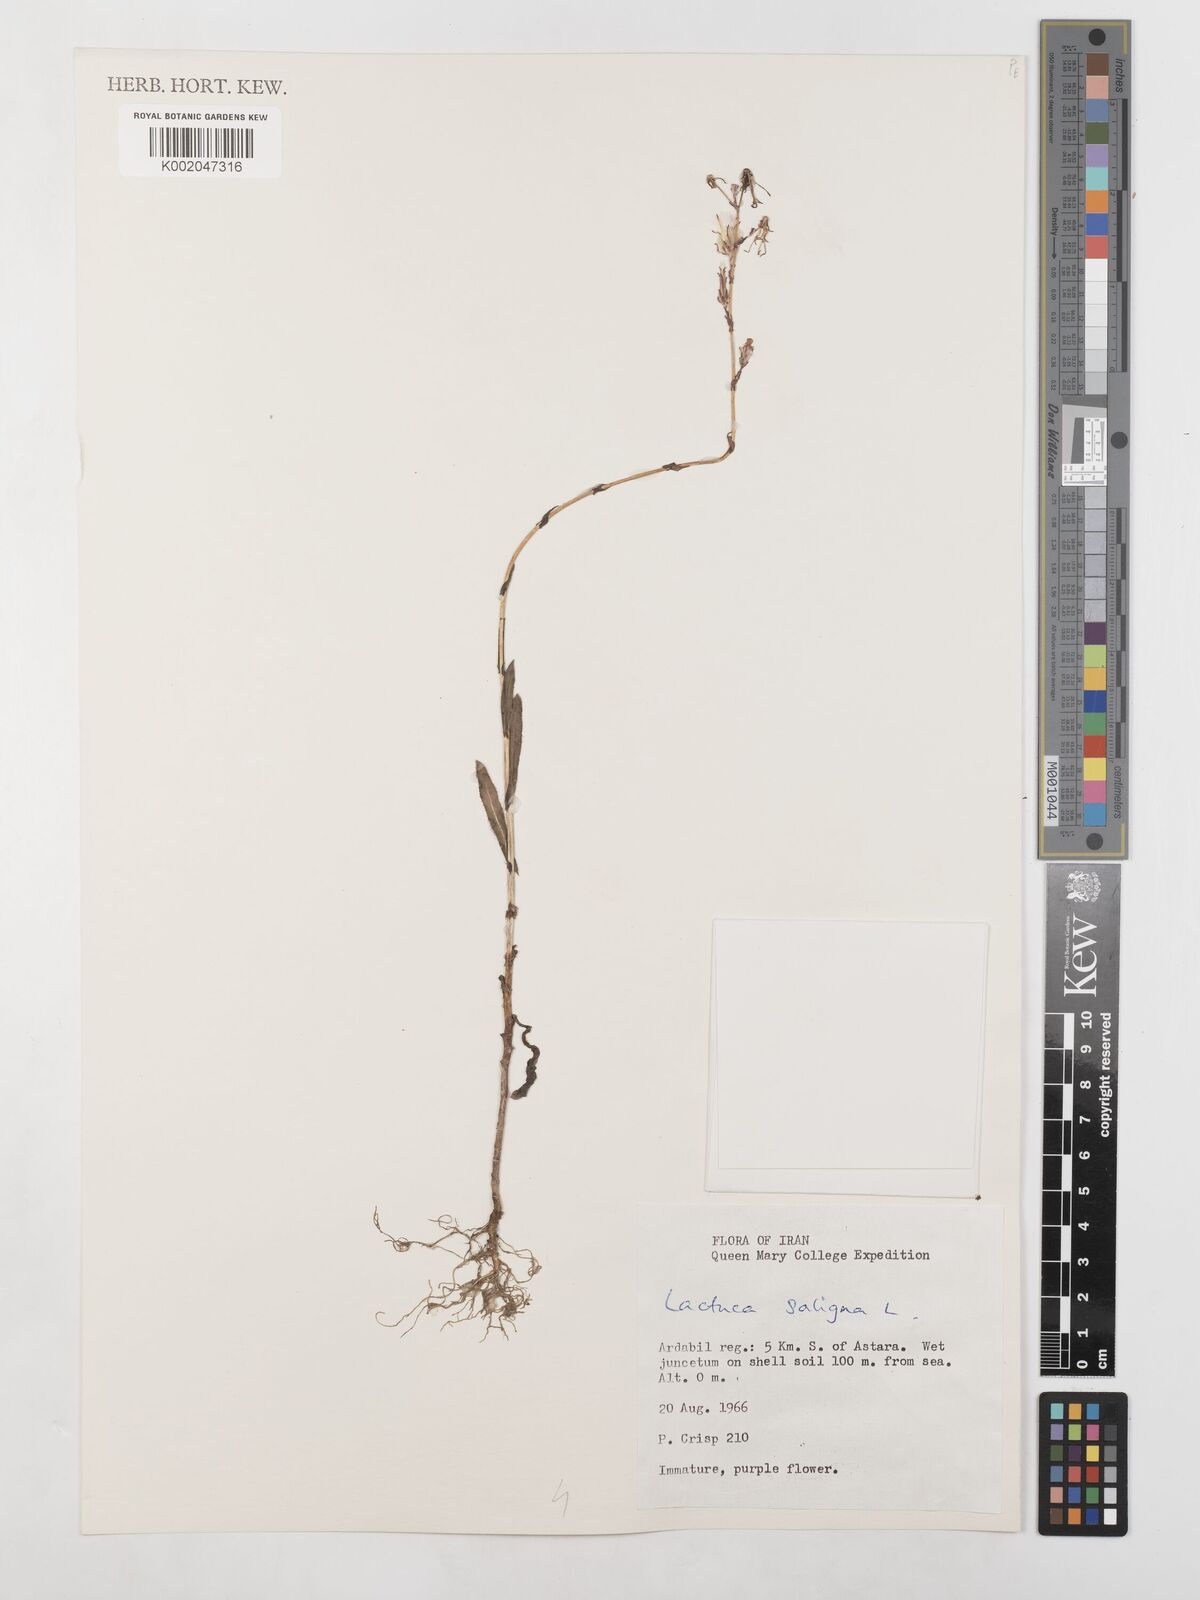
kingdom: Plantae
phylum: Tracheophyta
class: Magnoliopsida
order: Asterales
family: Asteraceae
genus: Lactuca
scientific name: Lactuca saligna
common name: Wild lettuce
